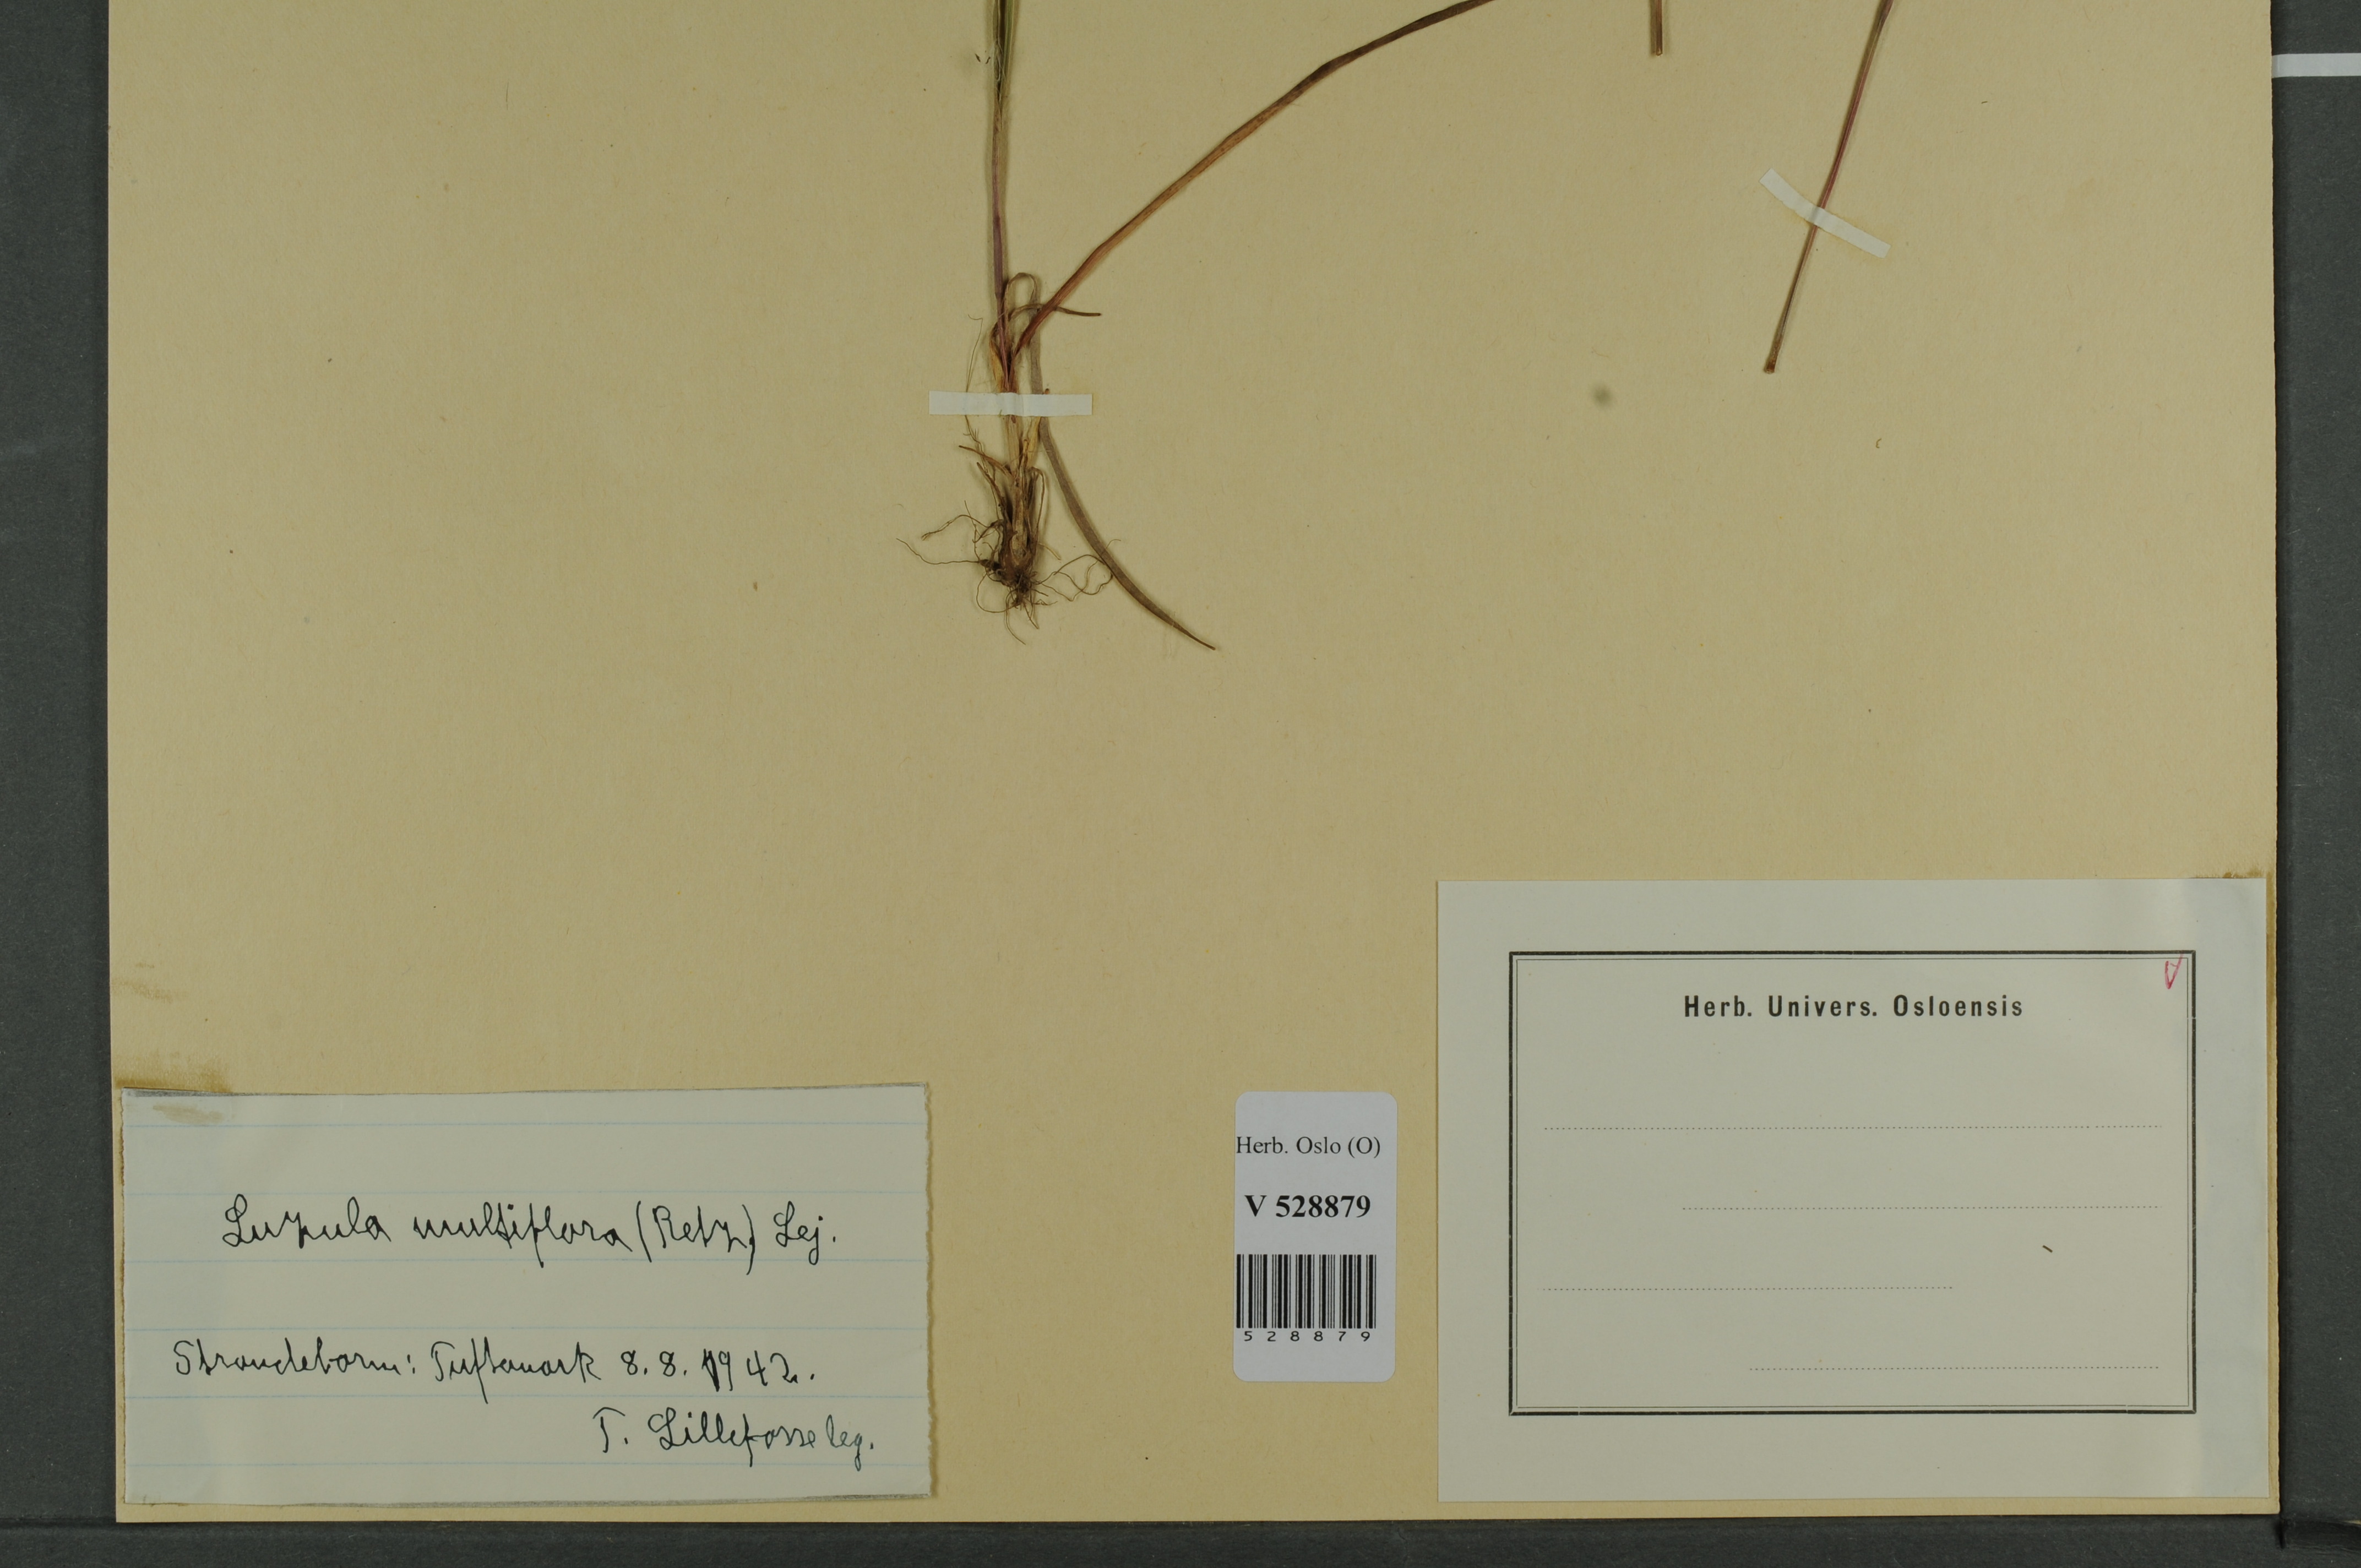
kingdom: Plantae
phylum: Tracheophyta
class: Liliopsida
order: Poales
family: Juncaceae
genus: Luzula
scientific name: Luzula multiflora
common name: Heath wood-rush
